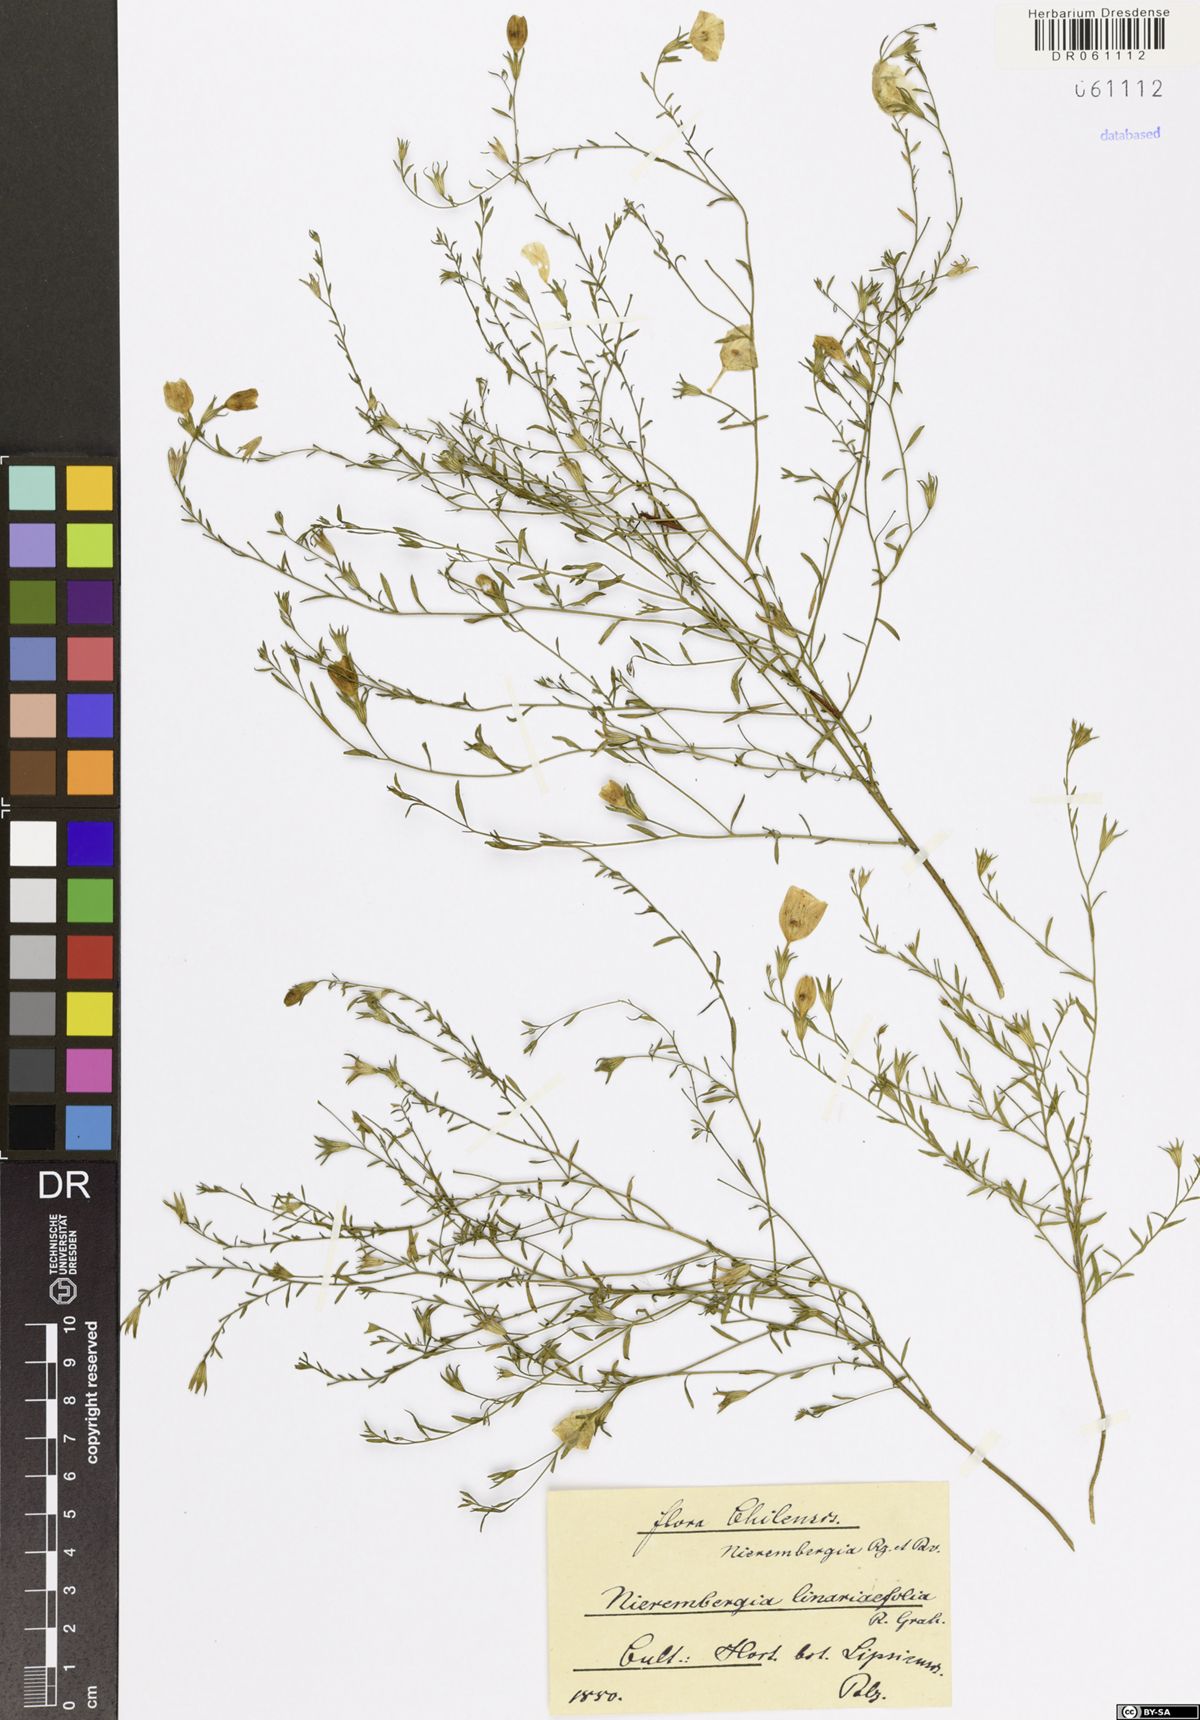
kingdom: Plantae
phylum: Tracheophyta
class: Magnoliopsida
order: Solanales
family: Solanaceae
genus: Nierembergia
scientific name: Nierembergia linariifolia
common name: Dwarf cupflower
